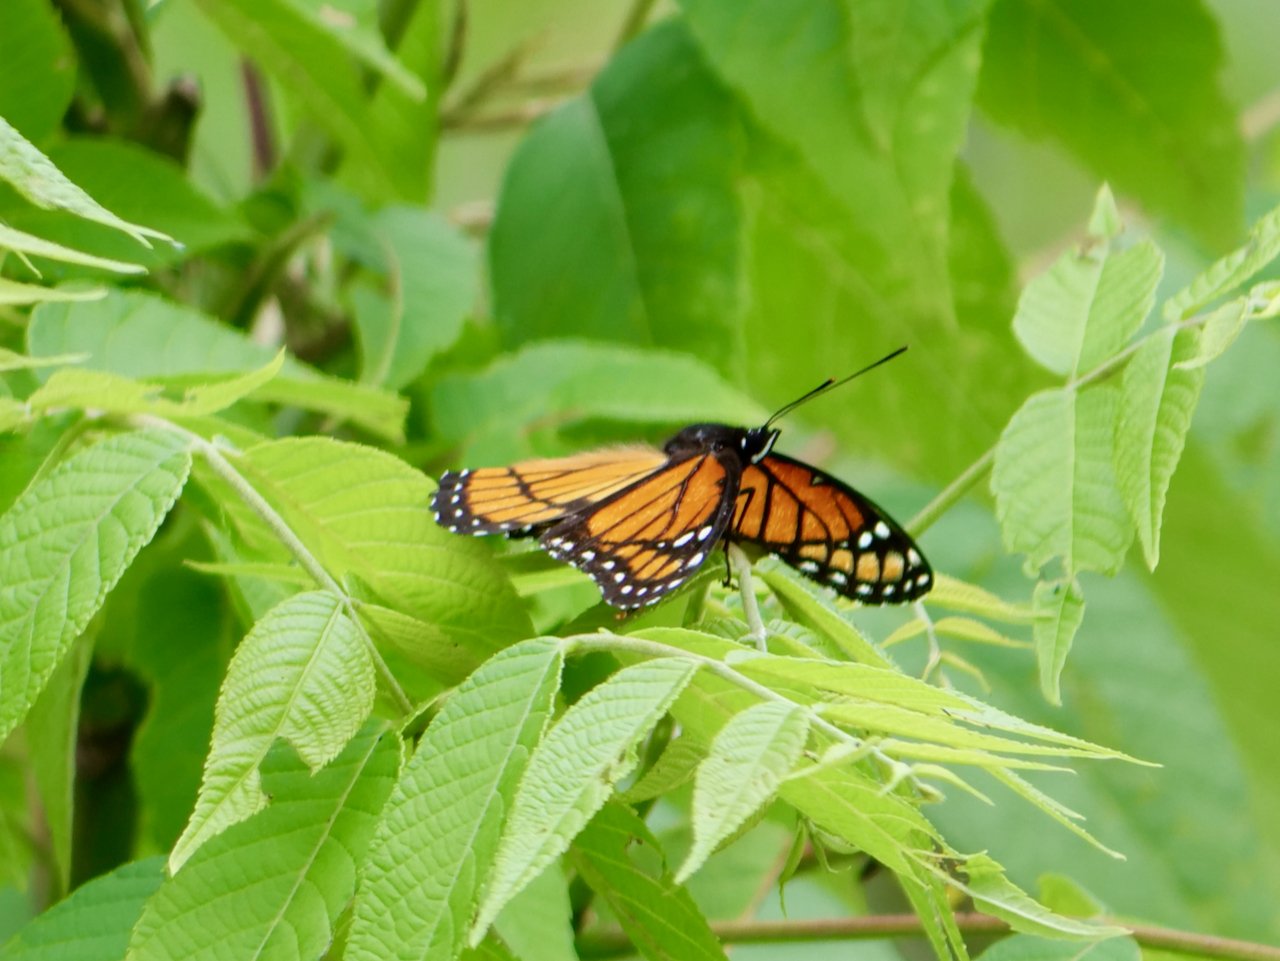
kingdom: Animalia
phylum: Arthropoda
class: Insecta
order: Lepidoptera
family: Nymphalidae
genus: Limenitis
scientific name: Limenitis archippus
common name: Viceroy
